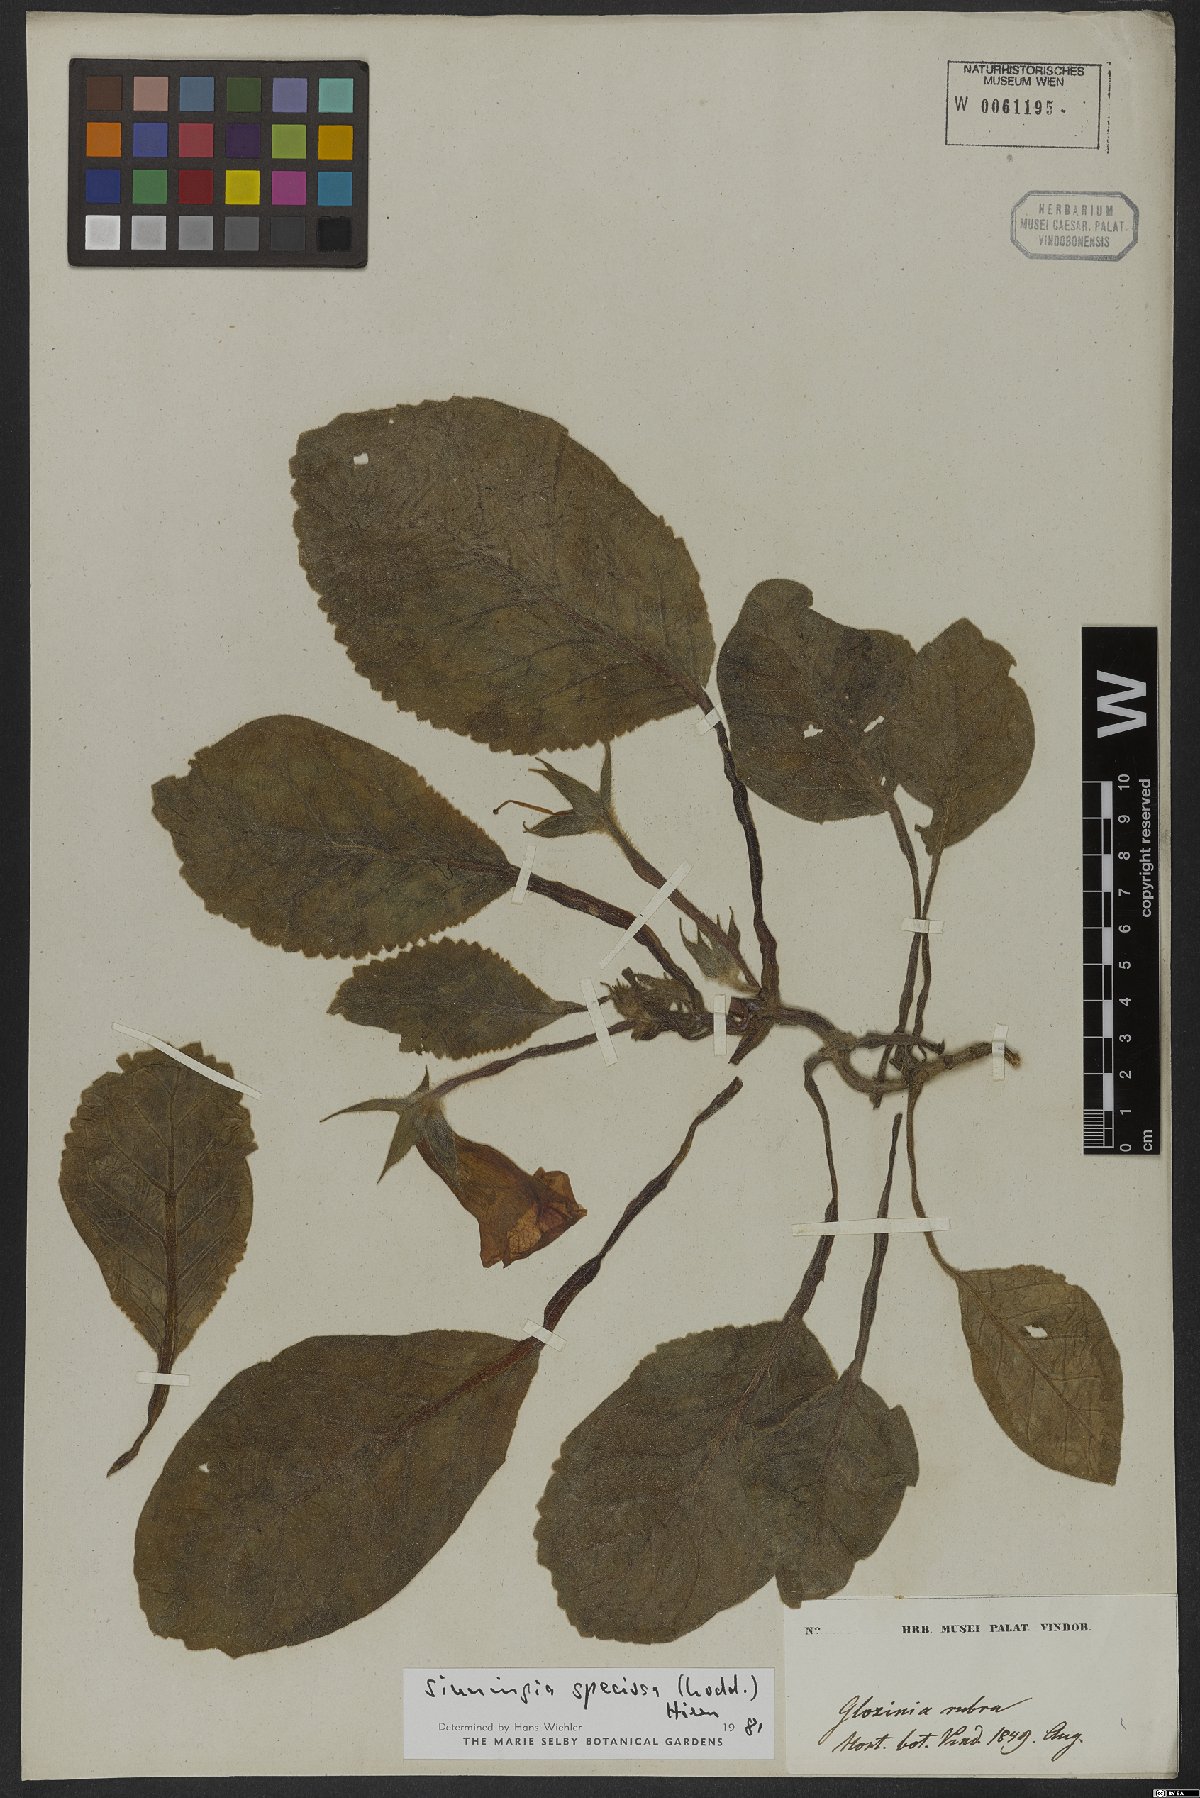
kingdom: Plantae
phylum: Tracheophyta
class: Magnoliopsida
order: Lamiales
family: Gesneriaceae
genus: Sinningia
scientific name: Sinningia speciosa
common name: Brazilian gloxinia
